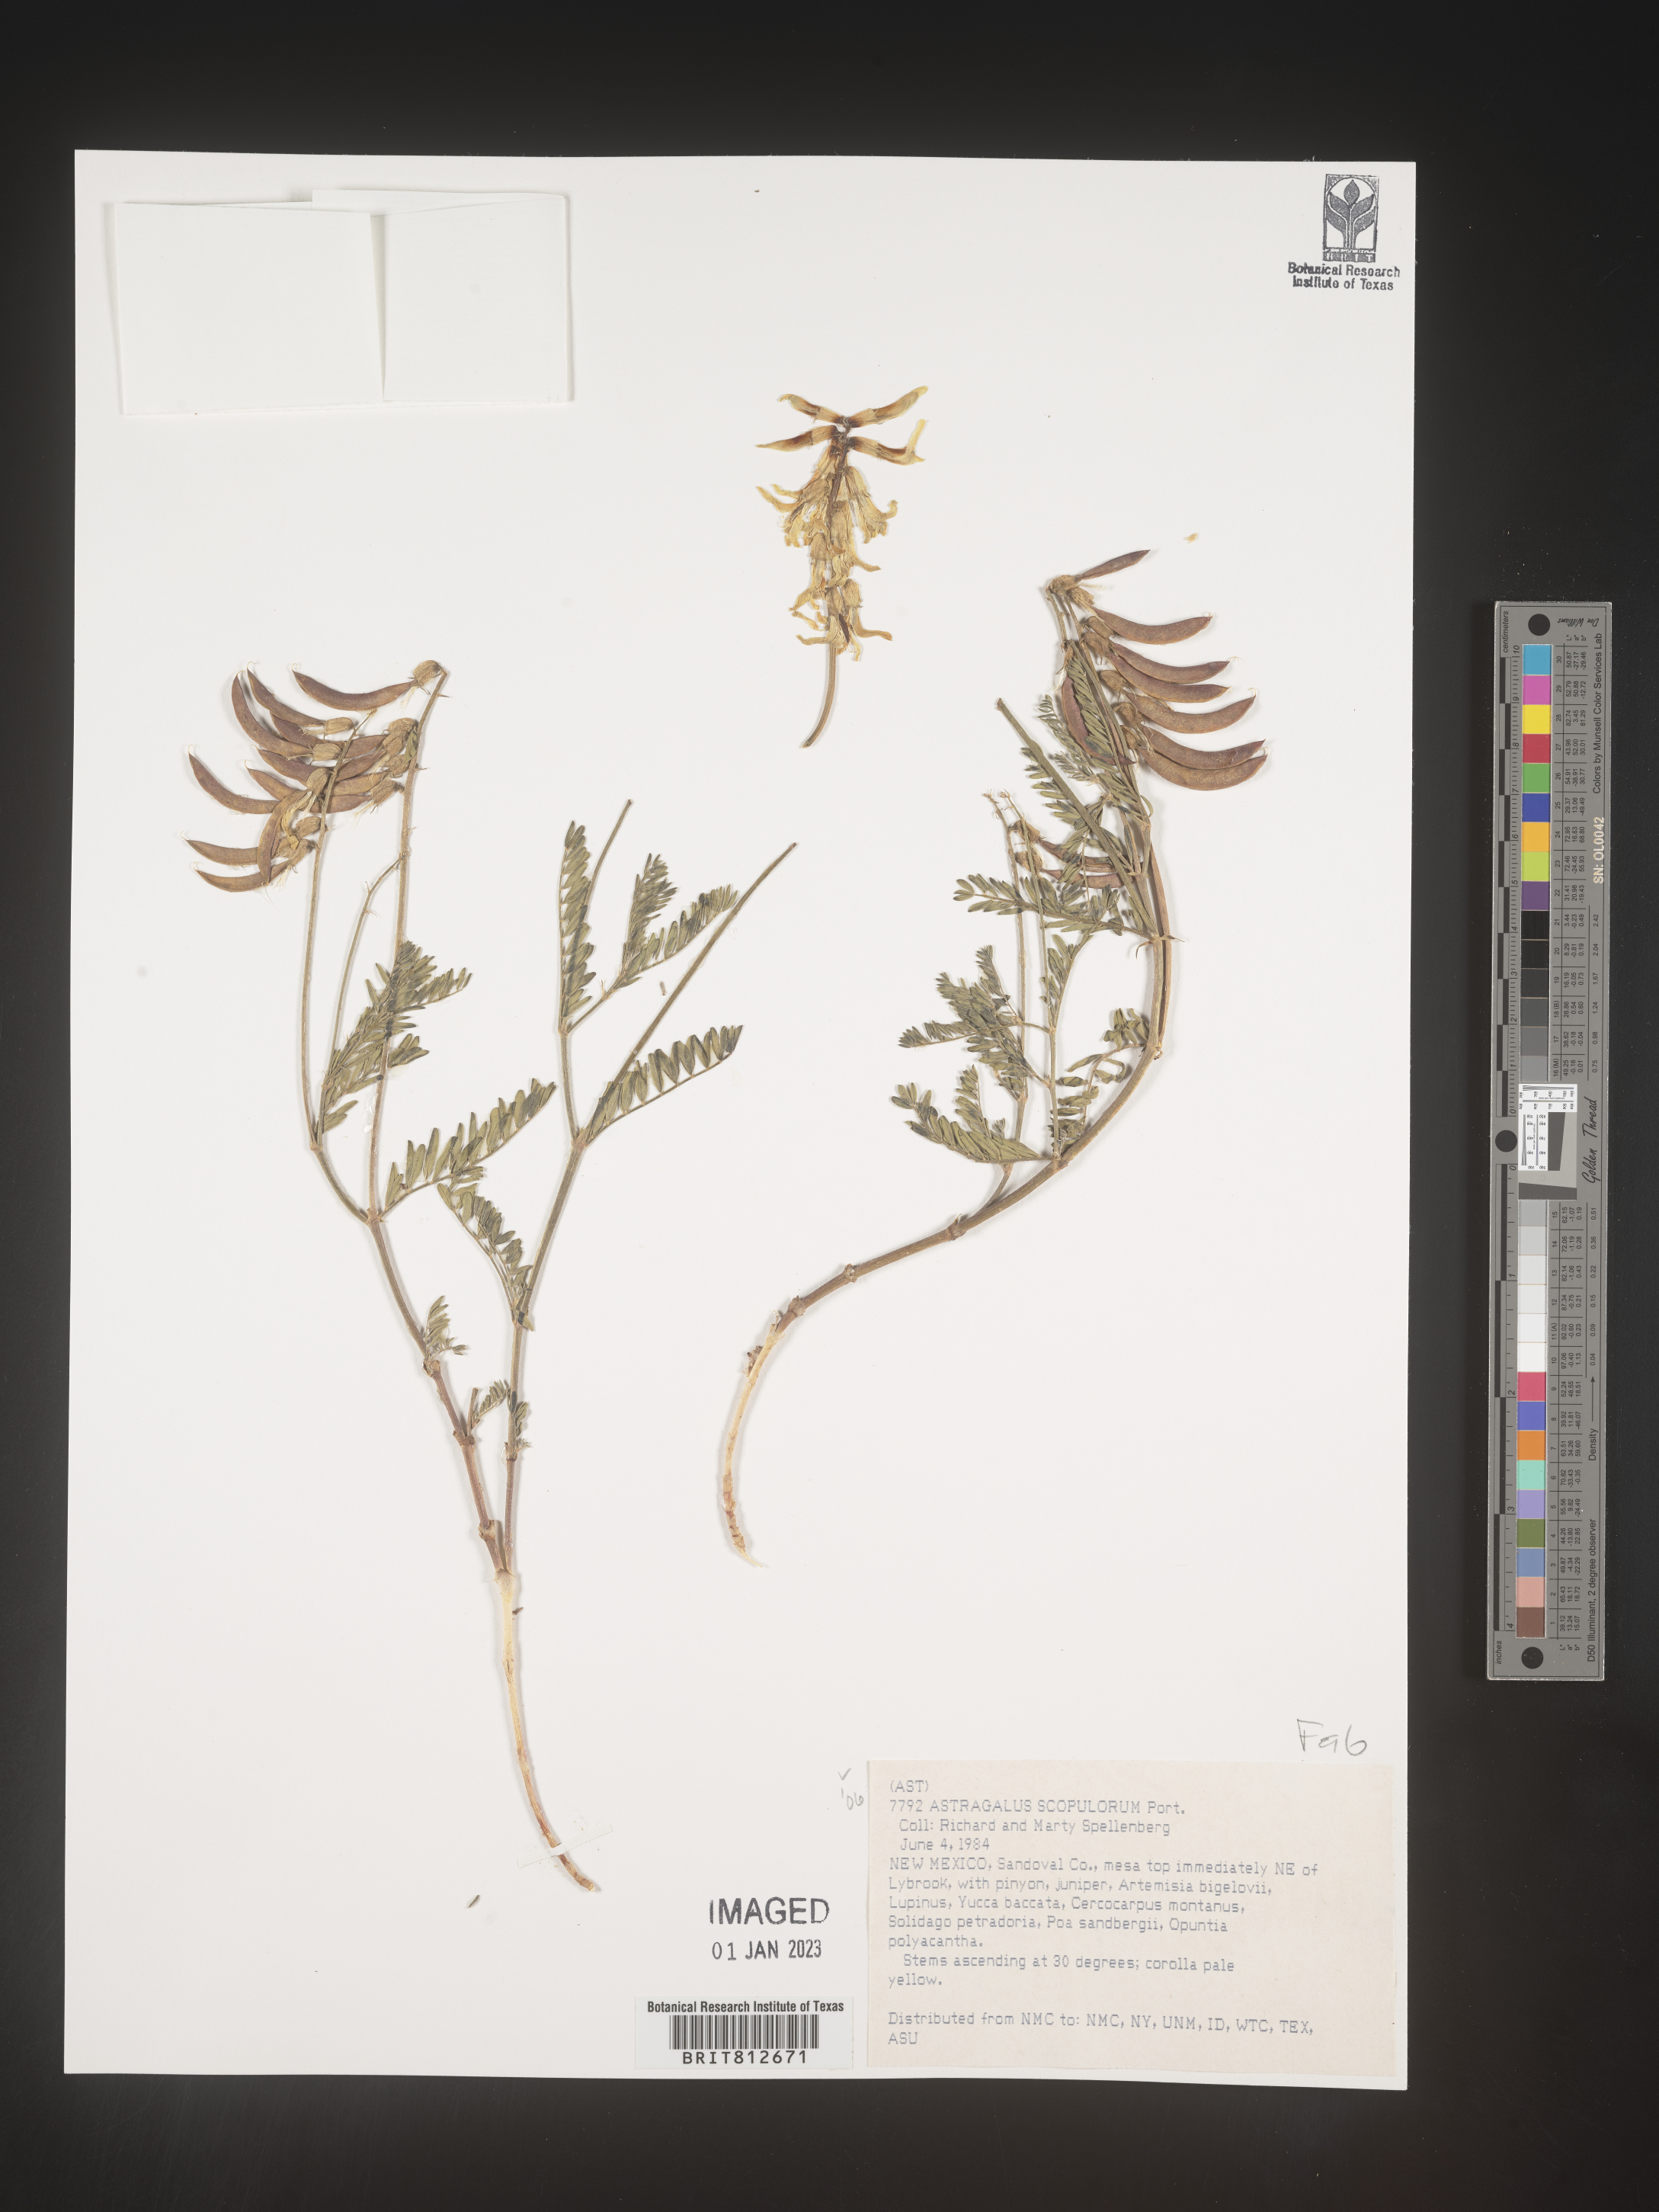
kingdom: Plantae
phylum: Tracheophyta
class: Magnoliopsida
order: Fabales
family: Fabaceae
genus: Astragalus
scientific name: Astragalus
